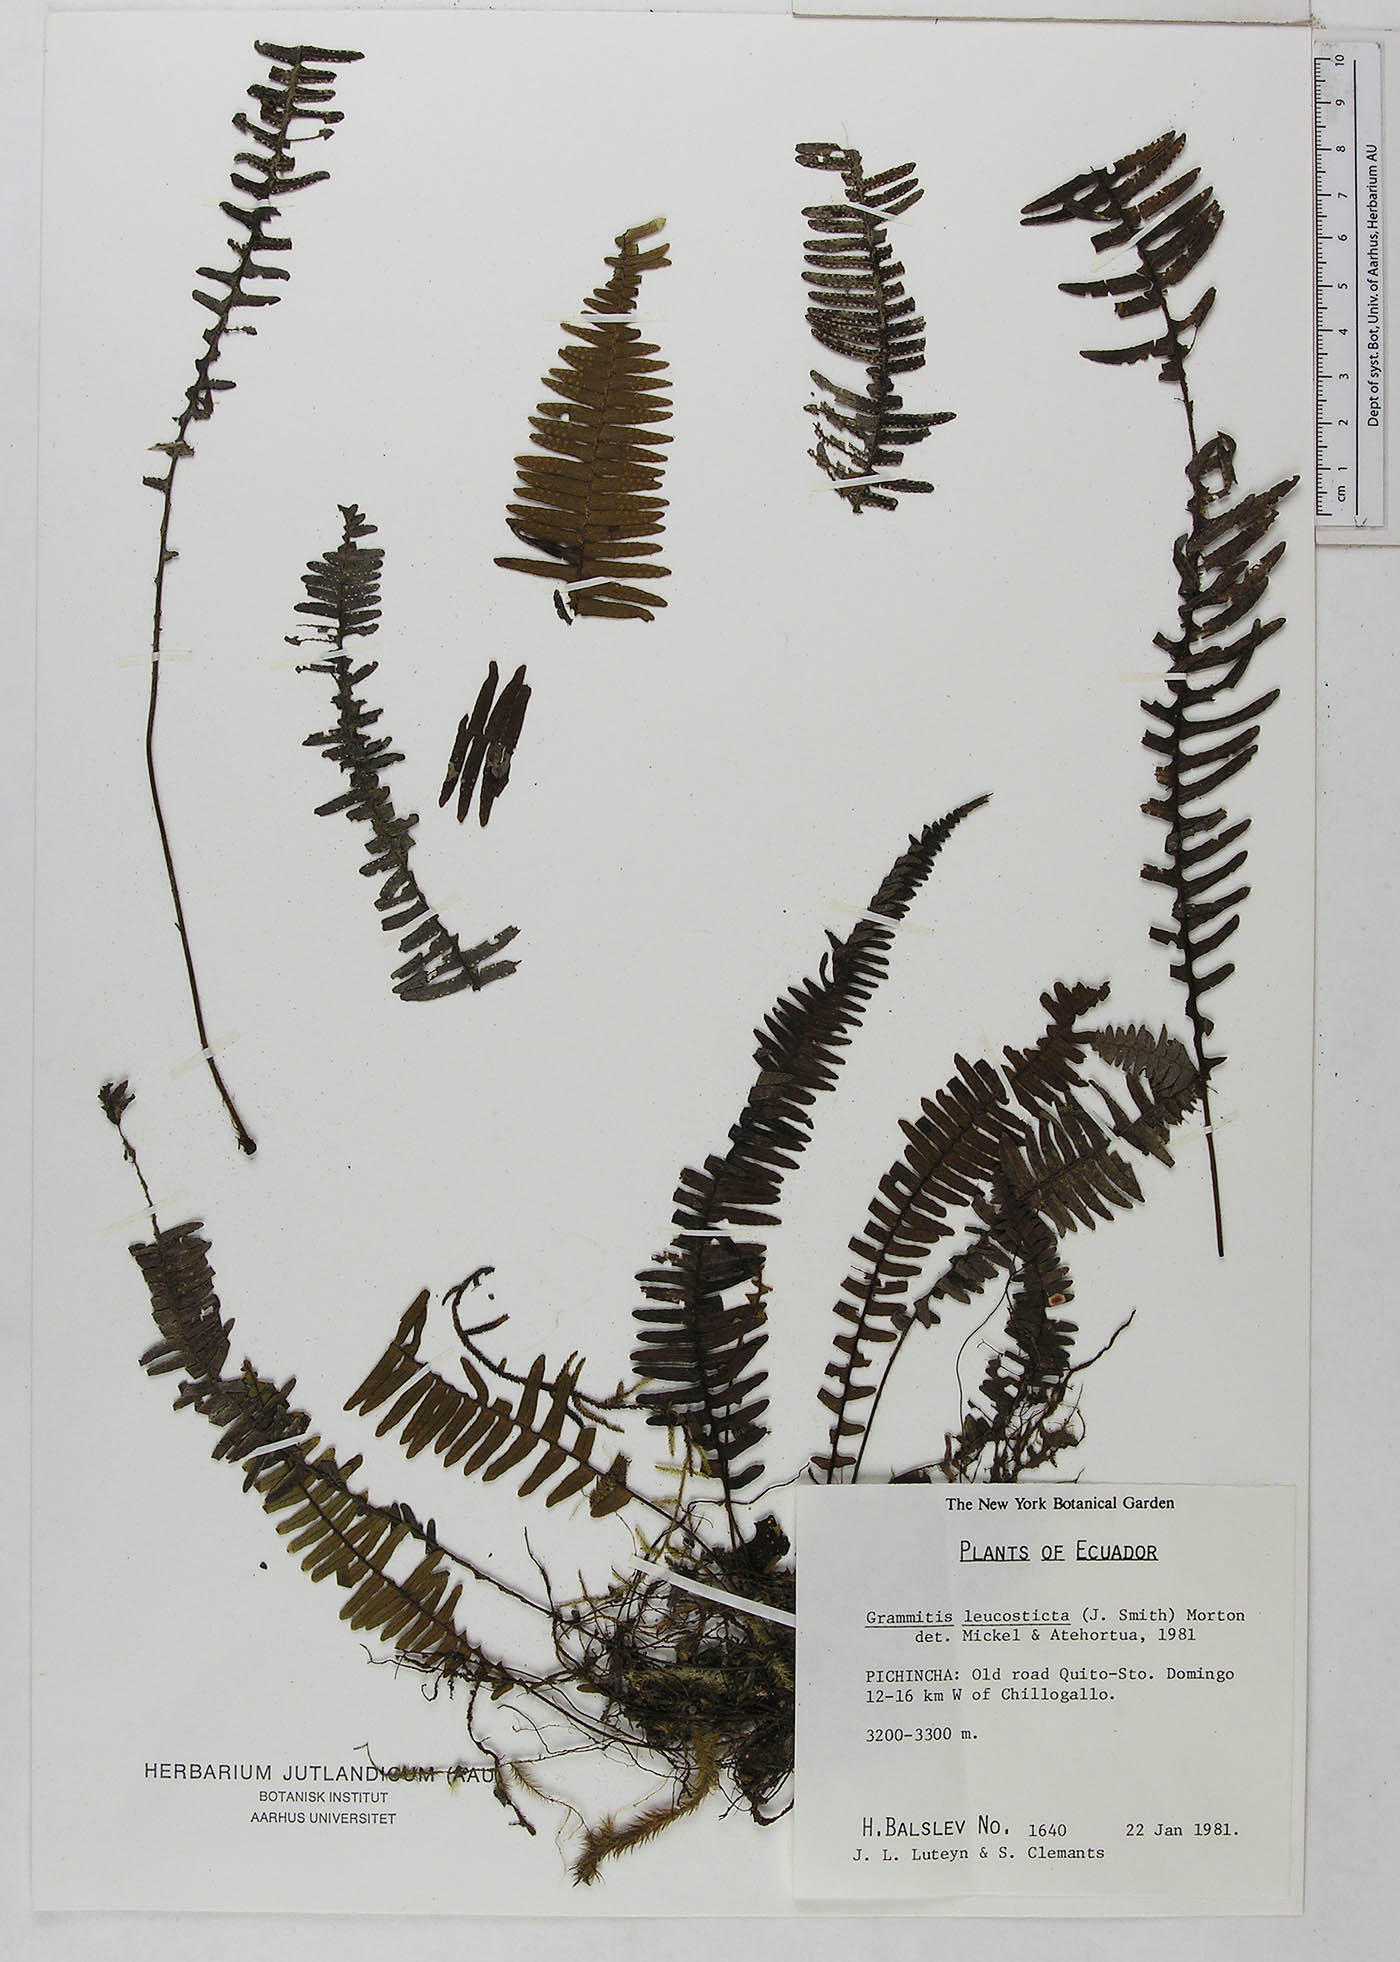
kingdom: Plantae
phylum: Tracheophyta
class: Polypodiopsida
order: Polypodiales
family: Polypodiaceae
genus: Mycopteris
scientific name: Mycopteris leucosticta
